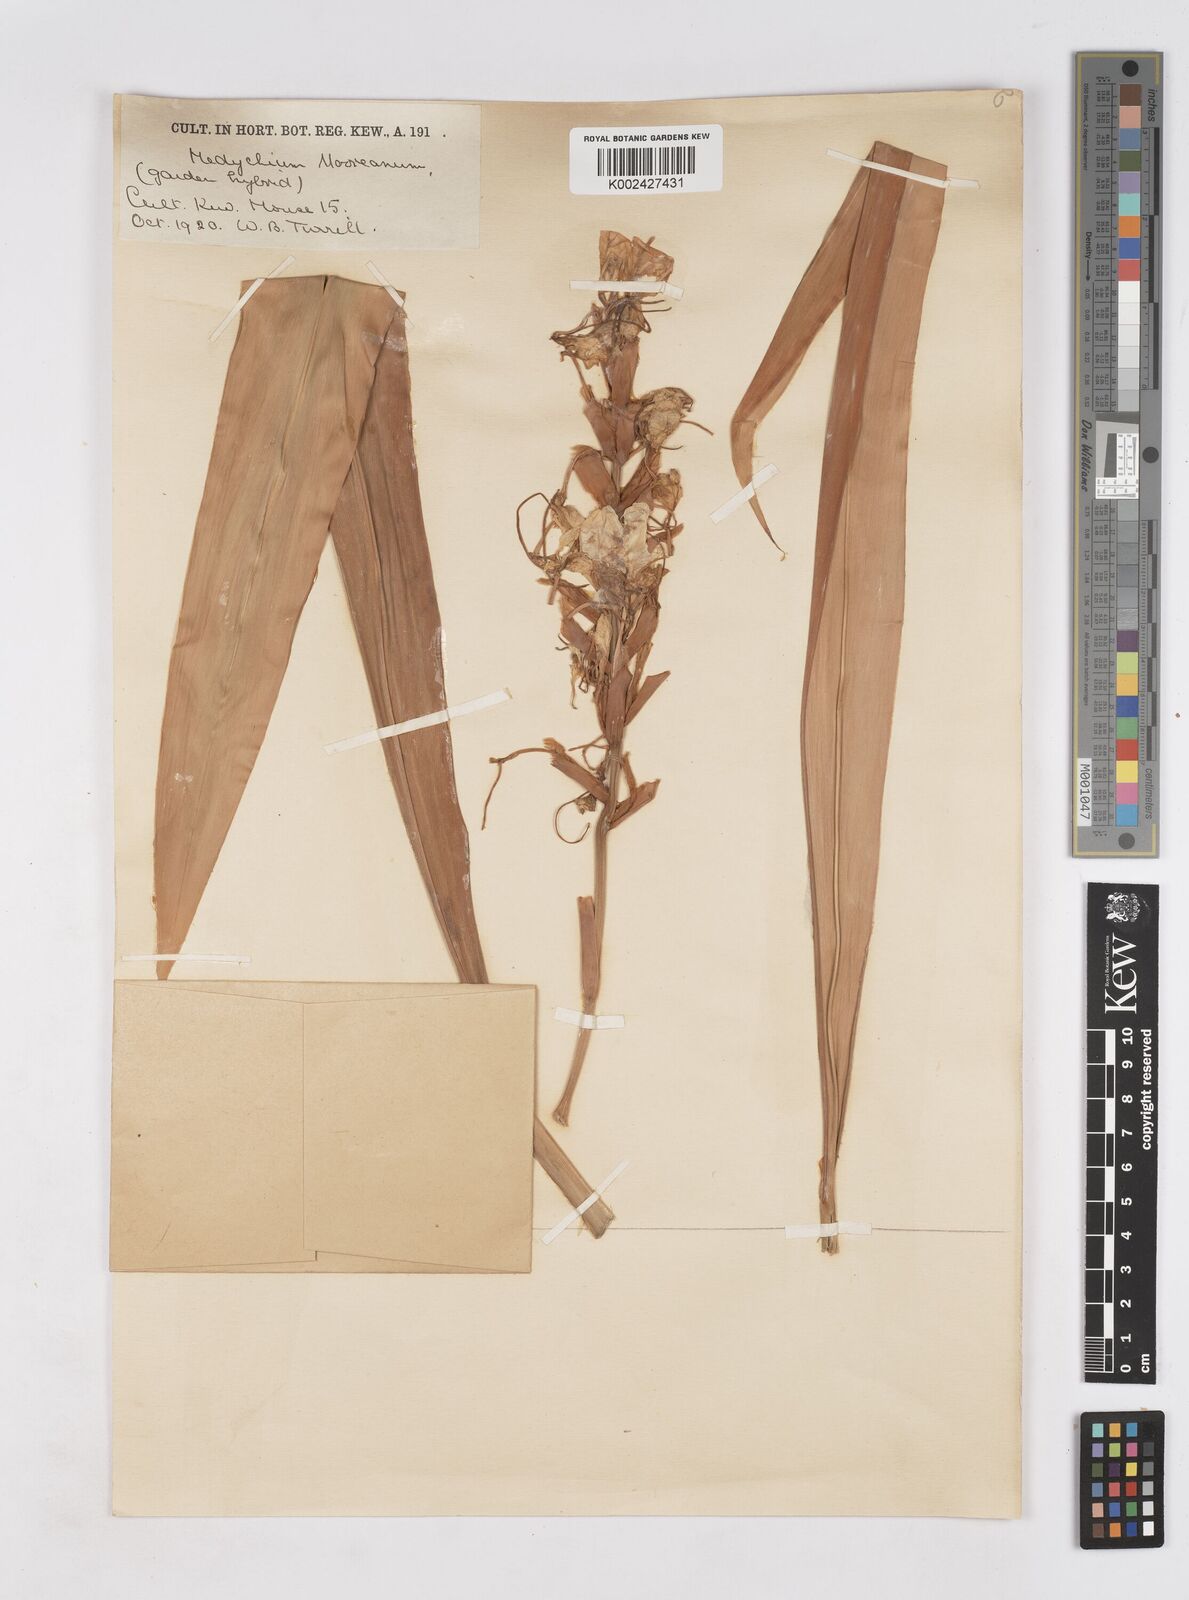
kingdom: Plantae
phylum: Tracheophyta
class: Liliopsida
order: Zingiberales
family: Zingiberaceae
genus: Hedychium
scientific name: Hedychium
